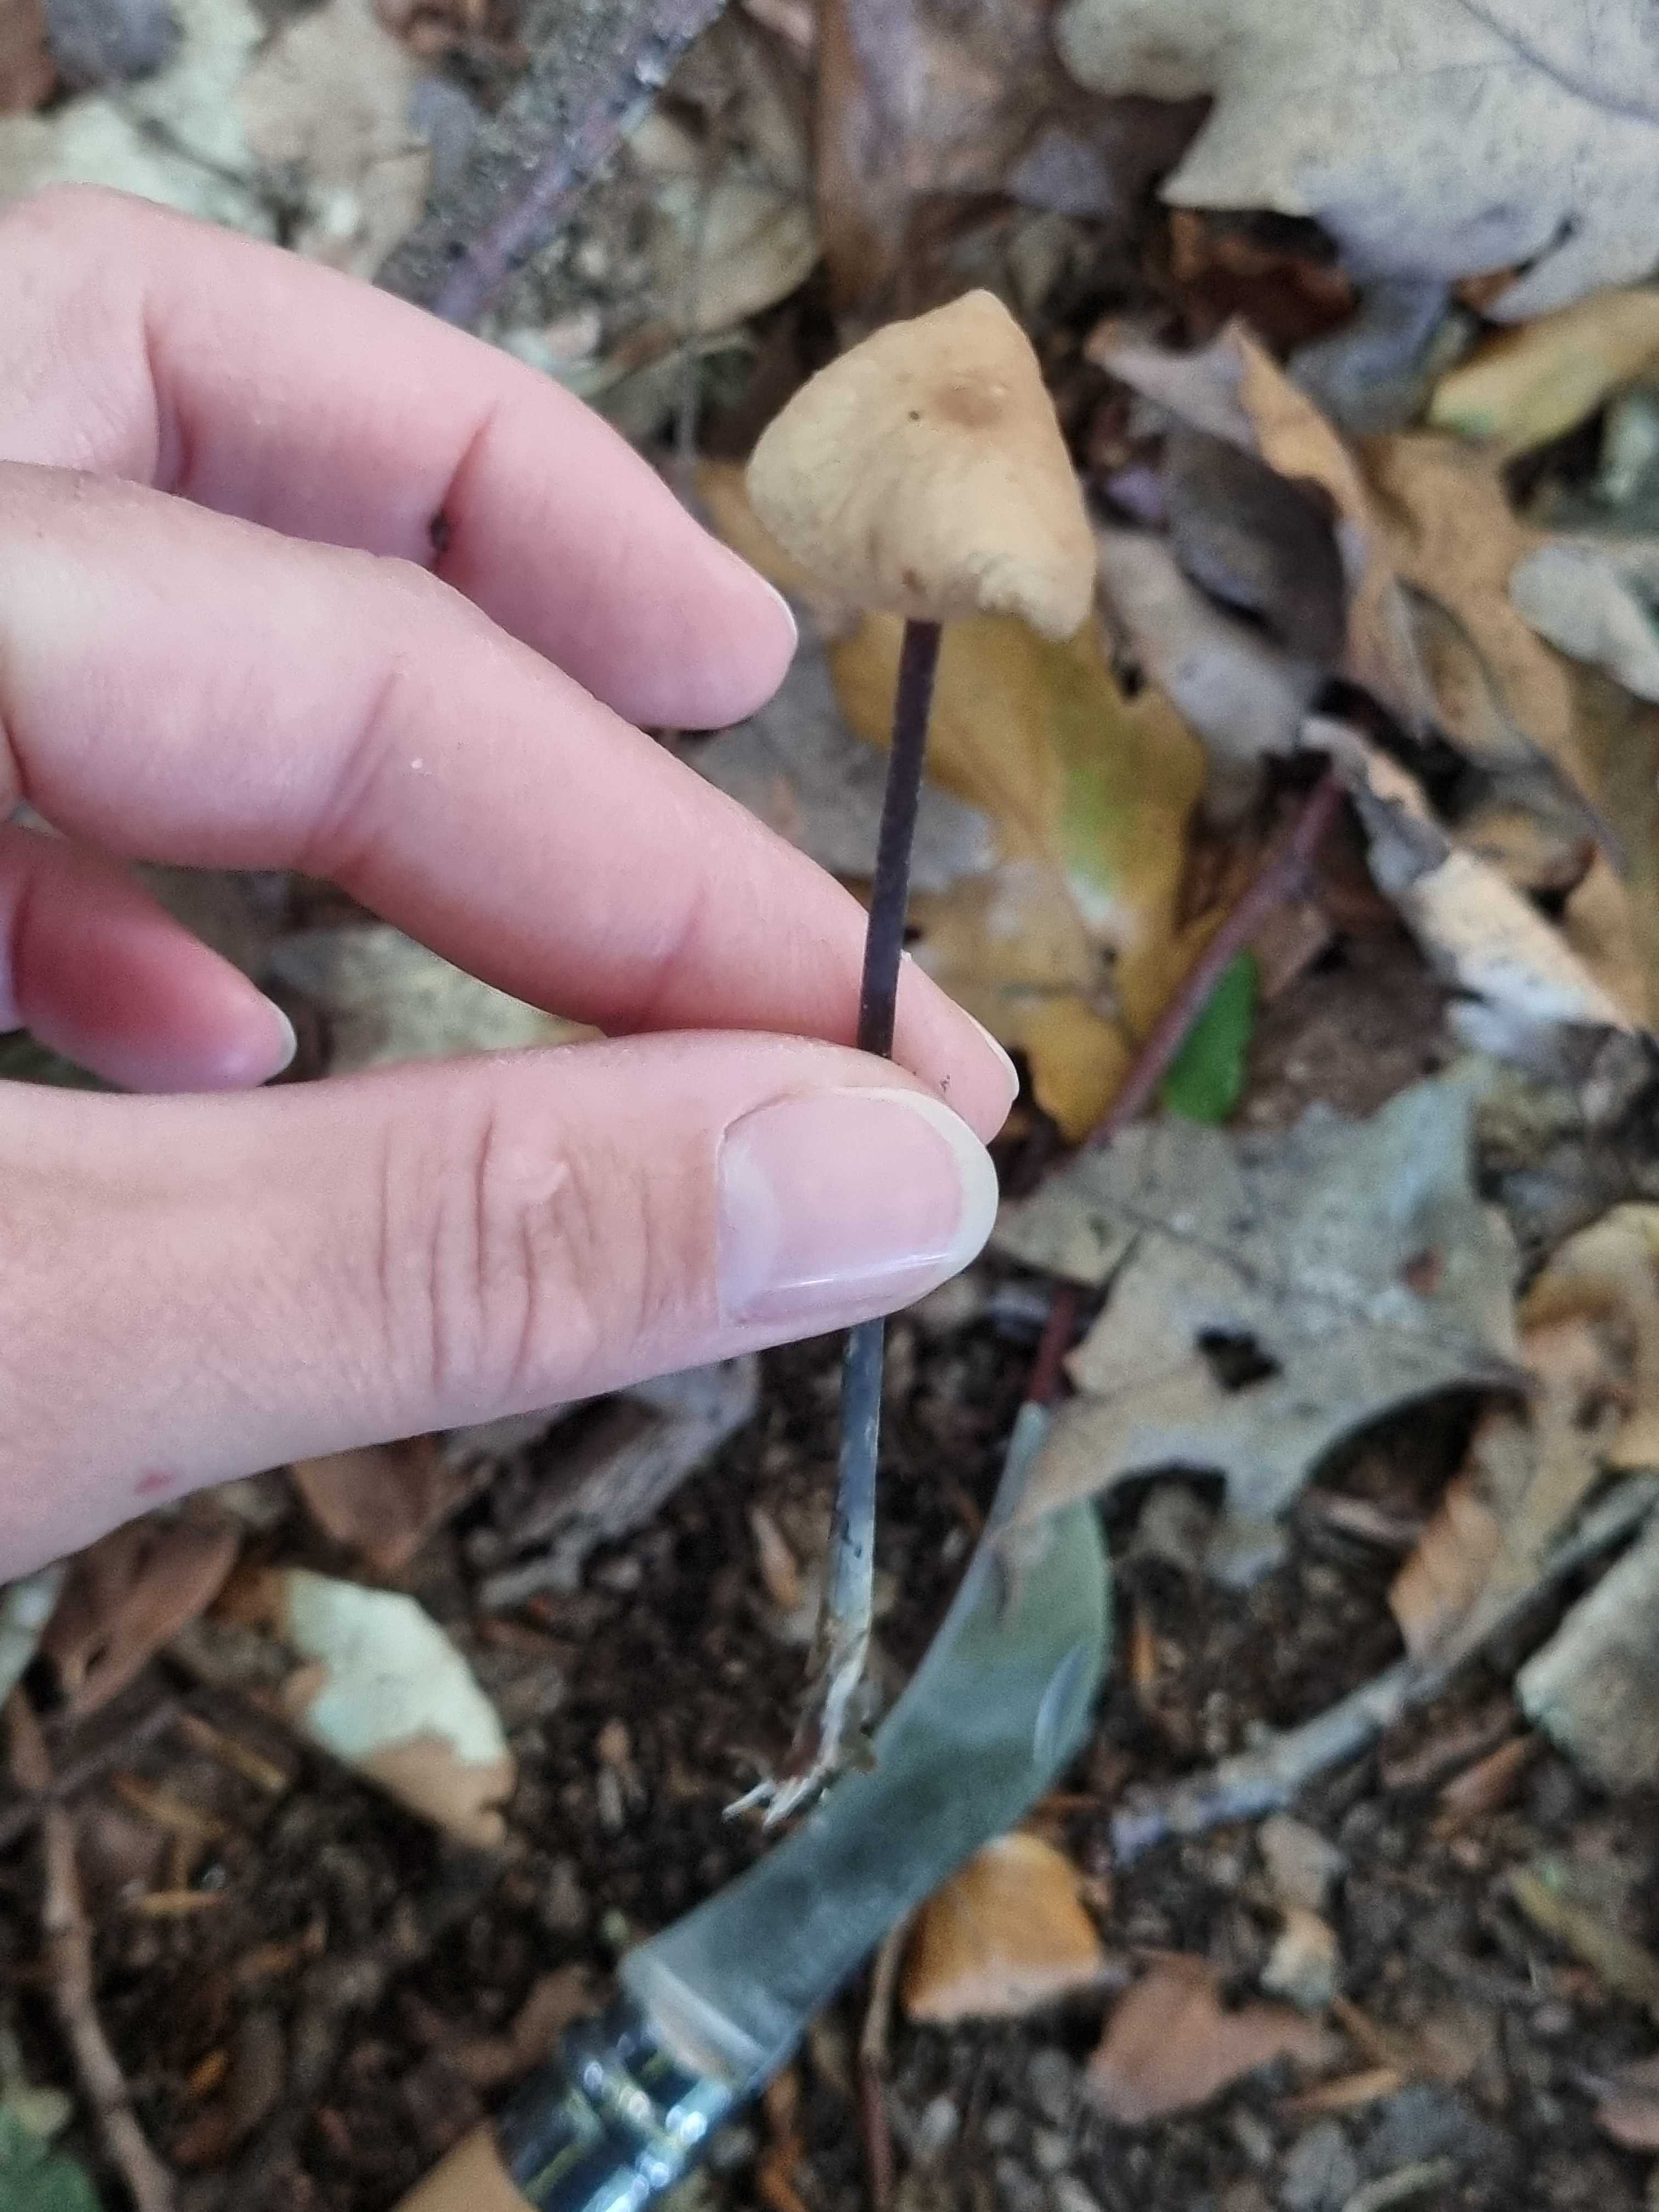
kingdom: Fungi
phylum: Basidiomycota
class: Agaricomycetes
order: Agaricales
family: Omphalotaceae
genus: Mycetinis
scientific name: Mycetinis alliaceus
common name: stor løghat
